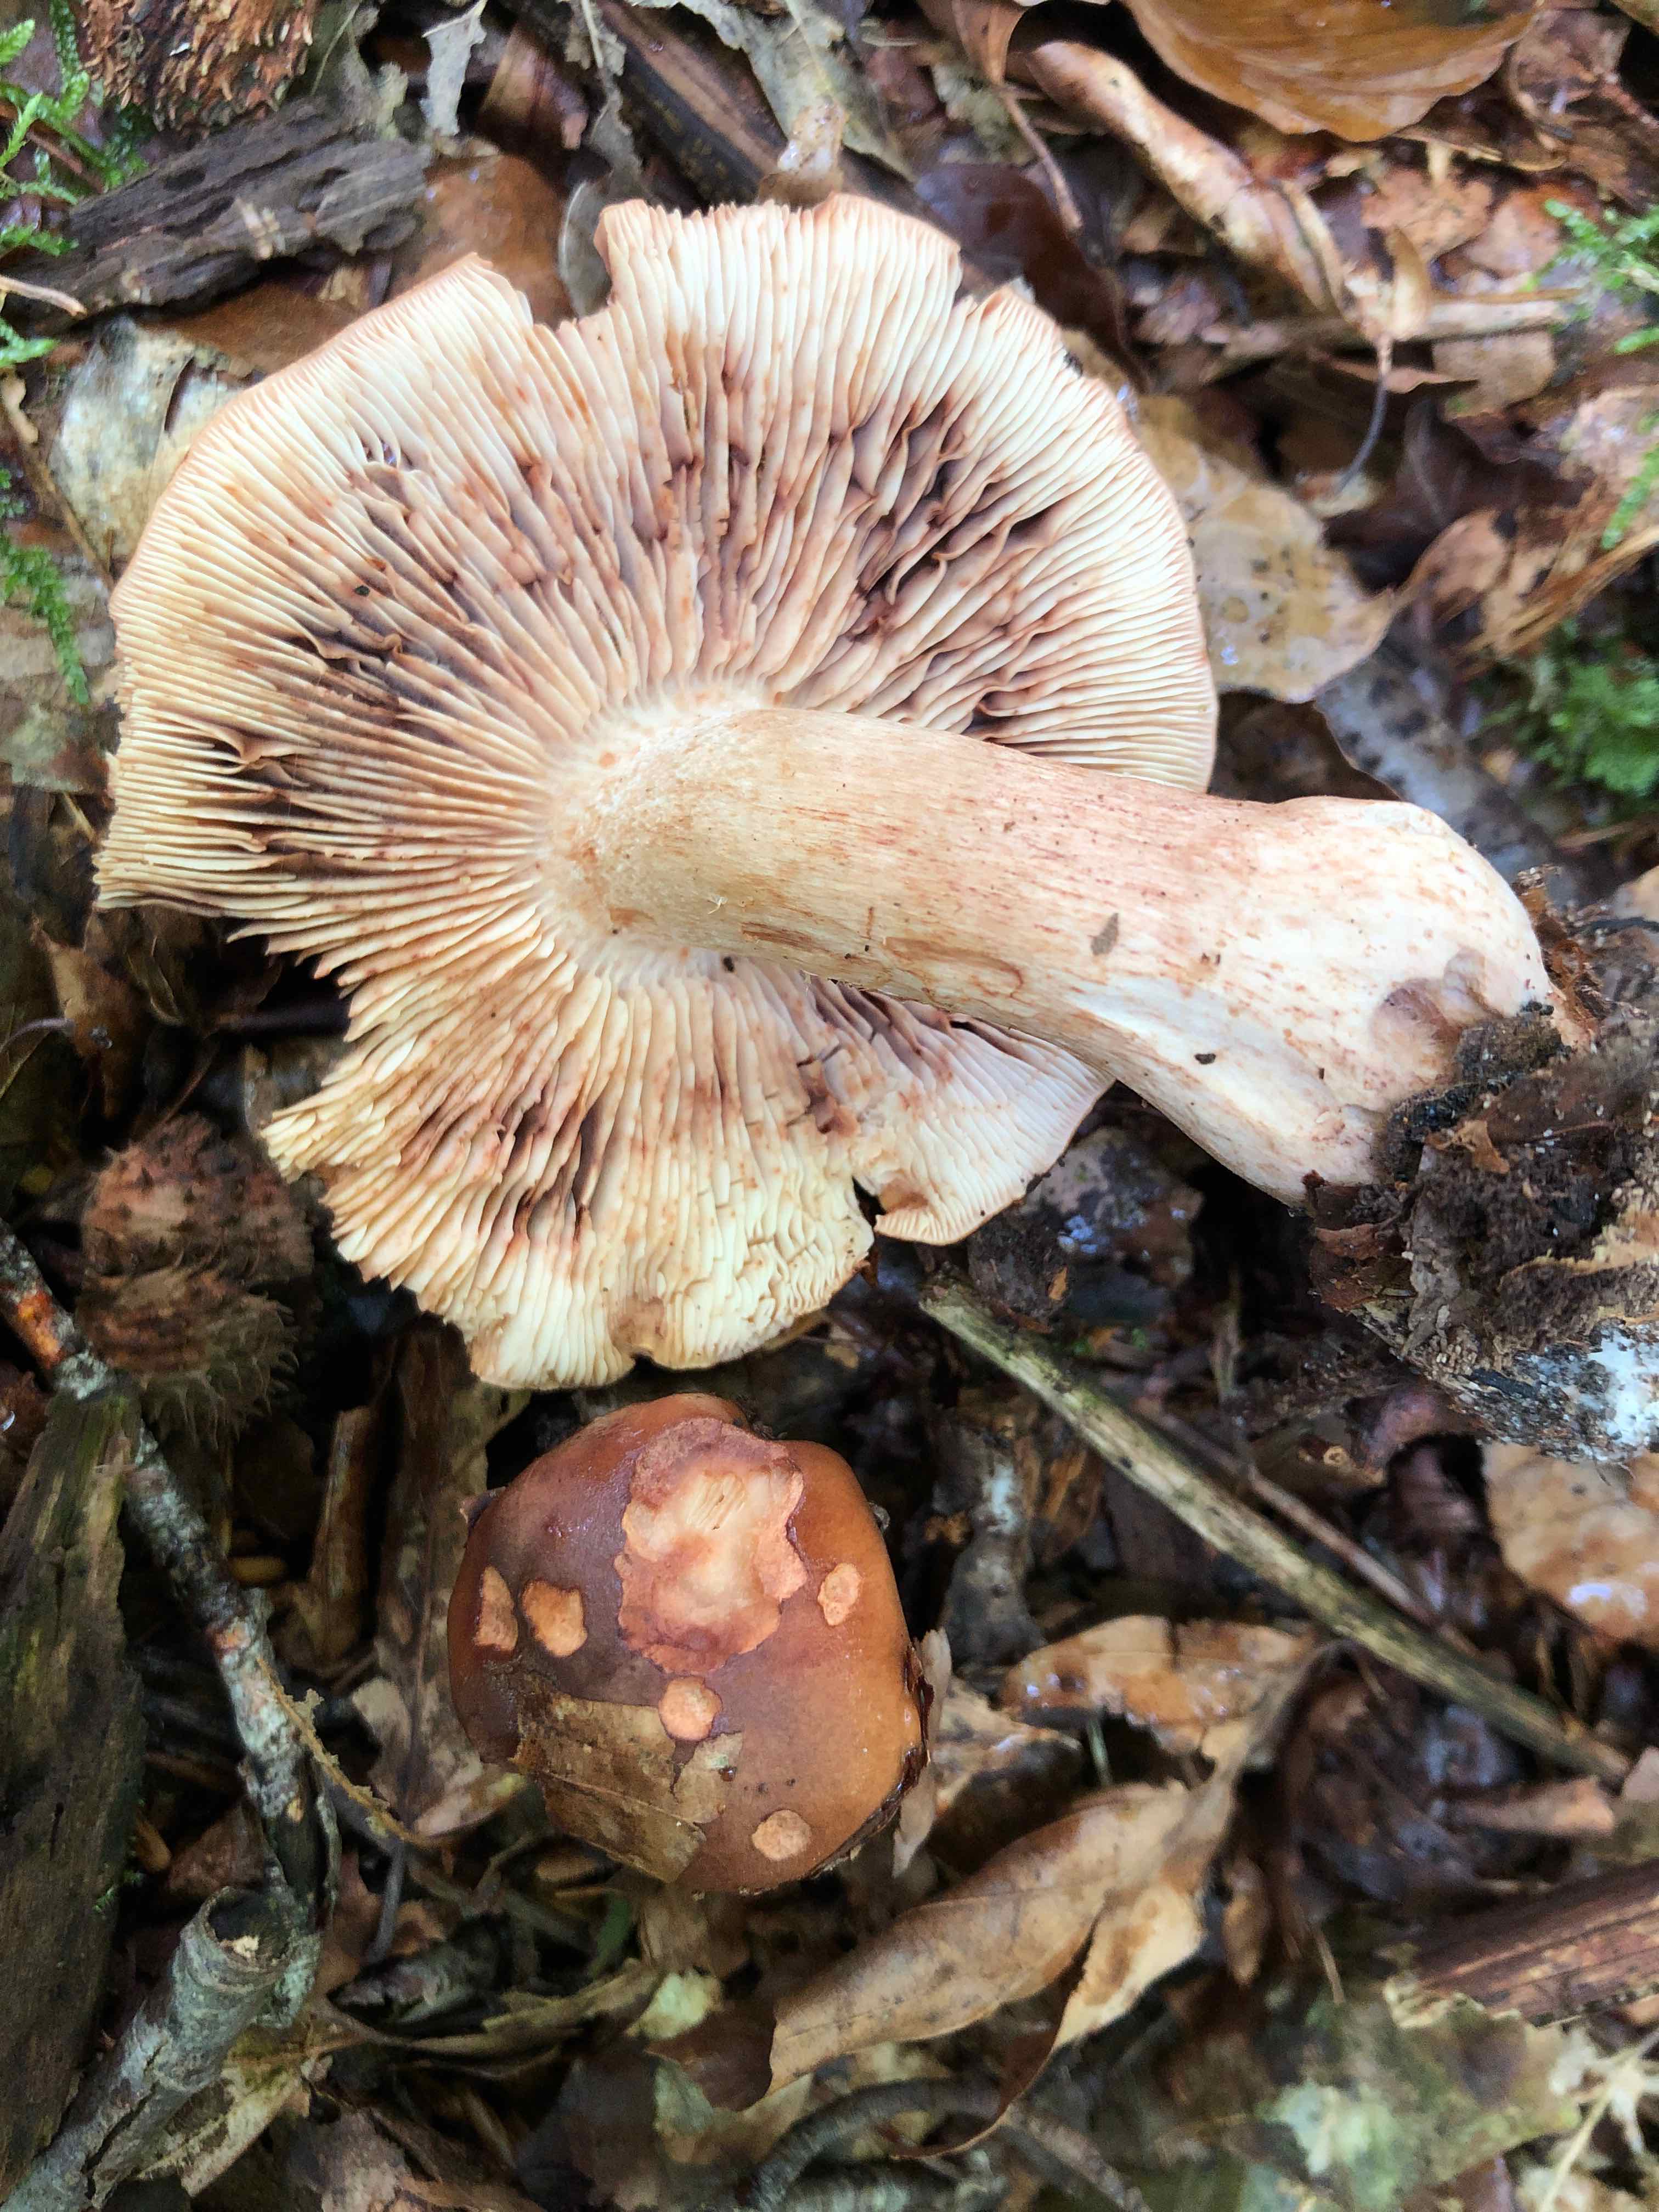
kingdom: Fungi
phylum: Basidiomycota
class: Agaricomycetes
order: Agaricales
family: Tricholomataceae
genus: Tricholoma
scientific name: Tricholoma ustale
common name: sveden ridderhat
